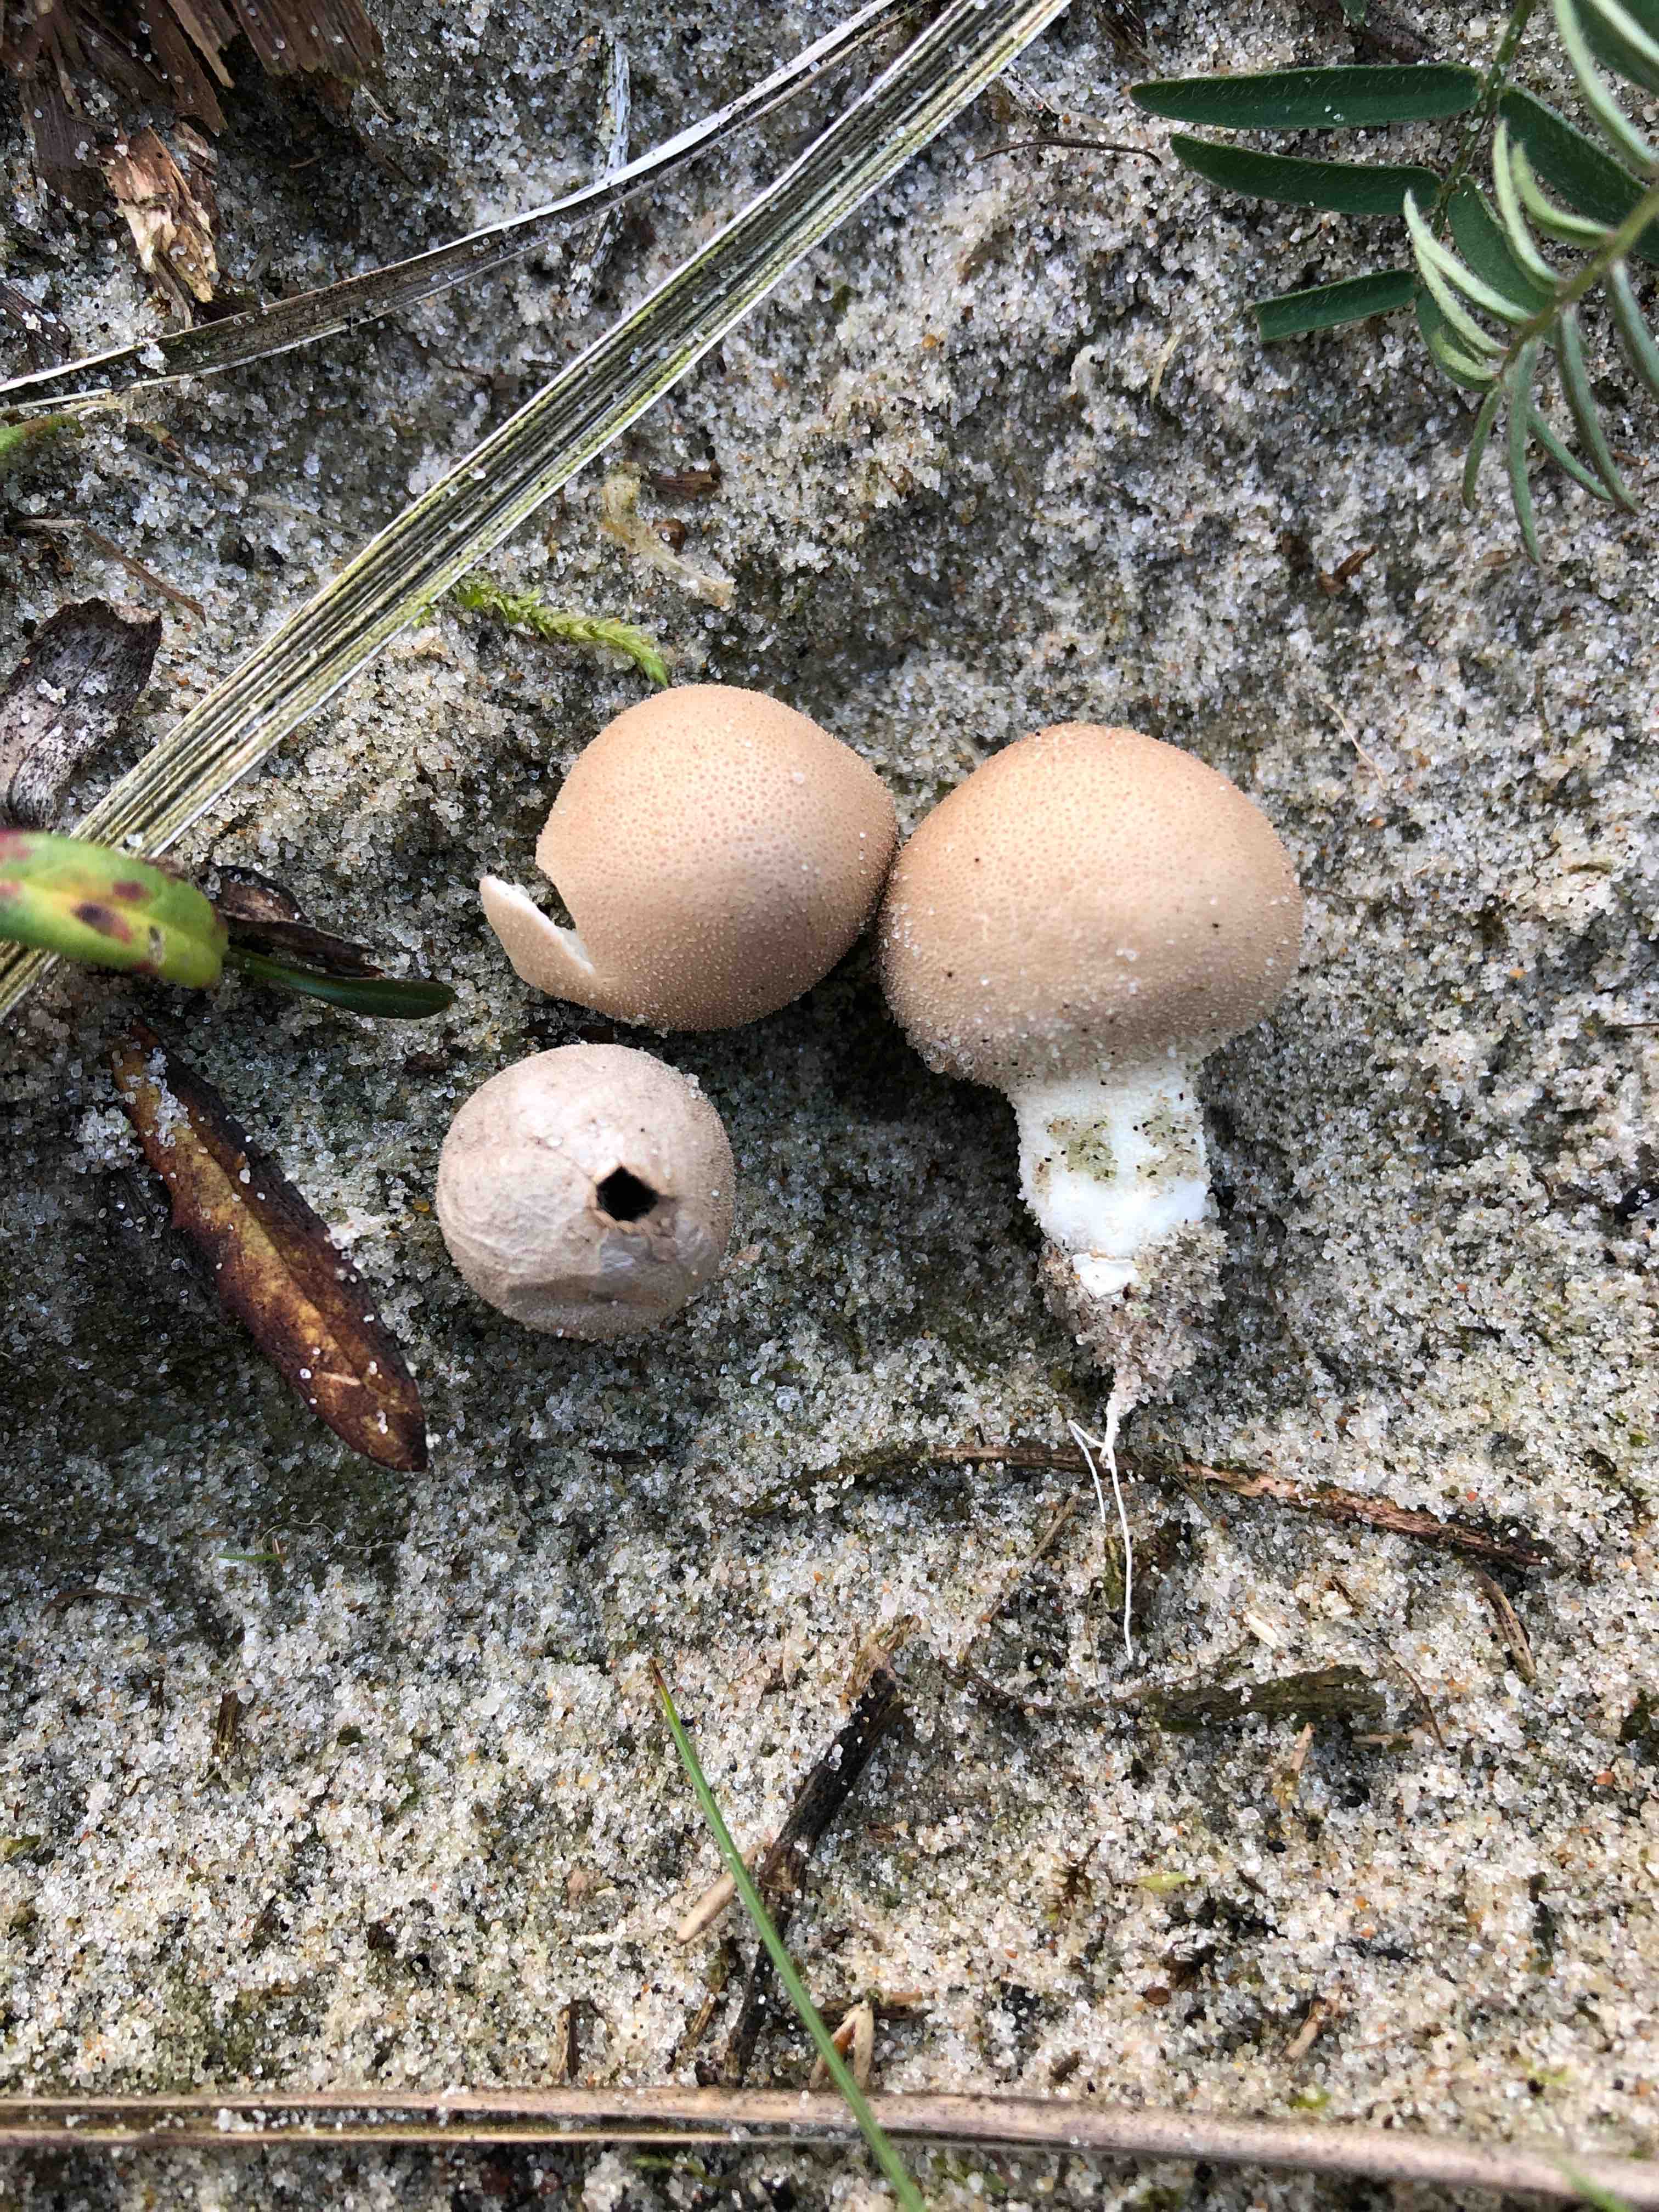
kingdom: Fungi
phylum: Basidiomycota
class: Agaricomycetes
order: Agaricales
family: Lycoperdaceae
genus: Lycoperdon
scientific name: Lycoperdon lividum
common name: mark-støvbold
